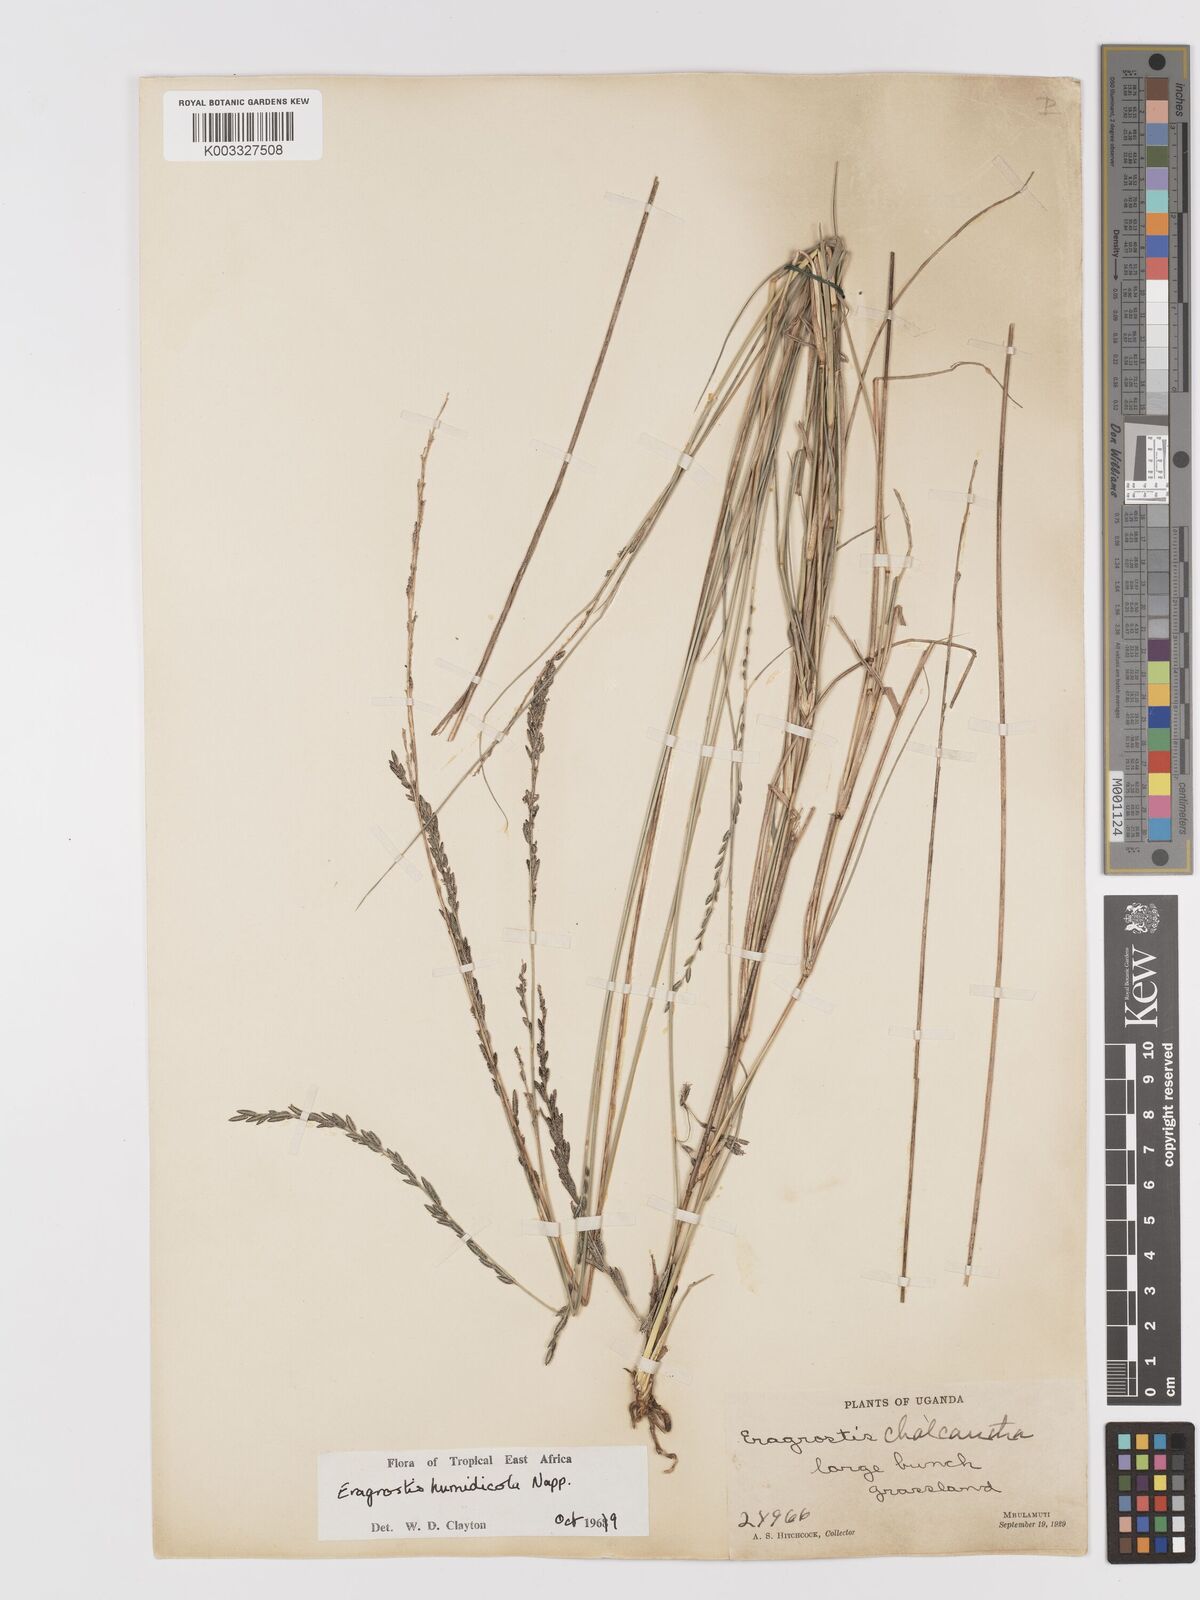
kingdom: Plantae
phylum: Tracheophyta
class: Liliopsida
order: Poales
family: Poaceae
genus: Eragrostis
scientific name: Eragrostis humidicola
